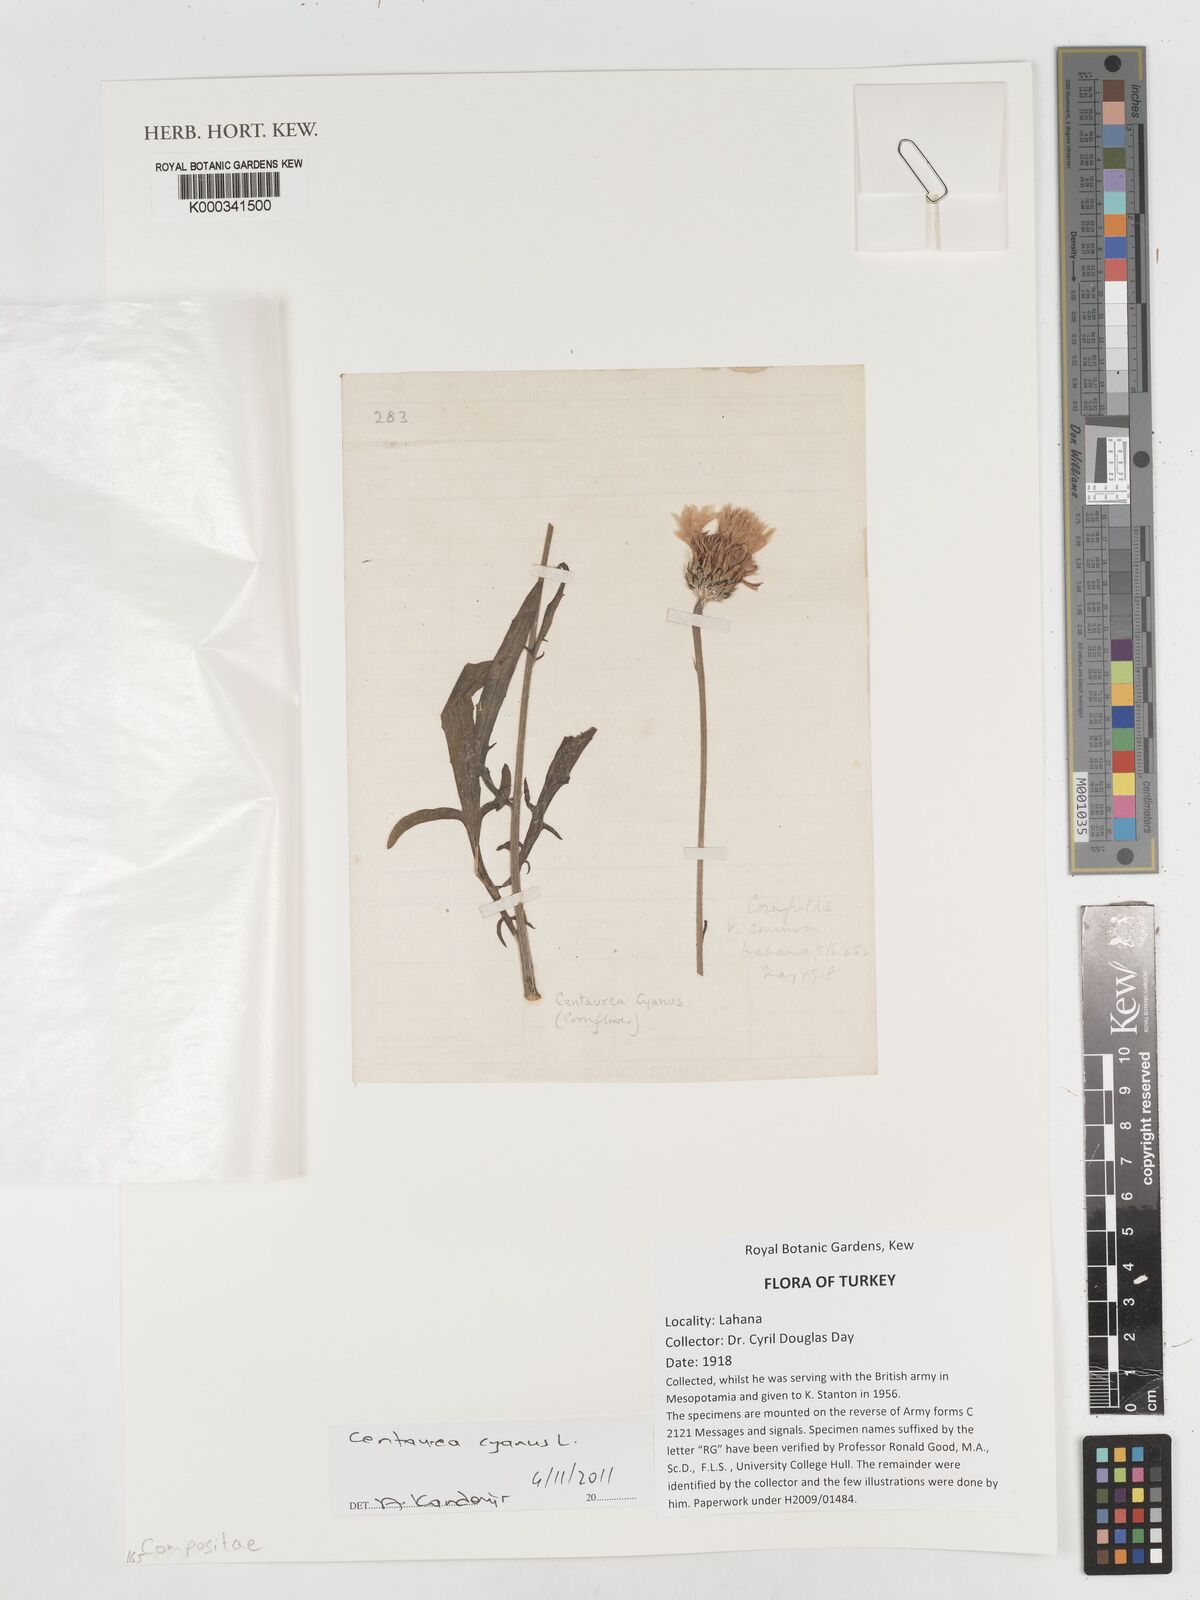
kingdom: Plantae
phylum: Tracheophyta
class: Magnoliopsida
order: Asterales
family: Asteraceae
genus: Centaurea
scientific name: Centaurea cyanus
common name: Cornflower
